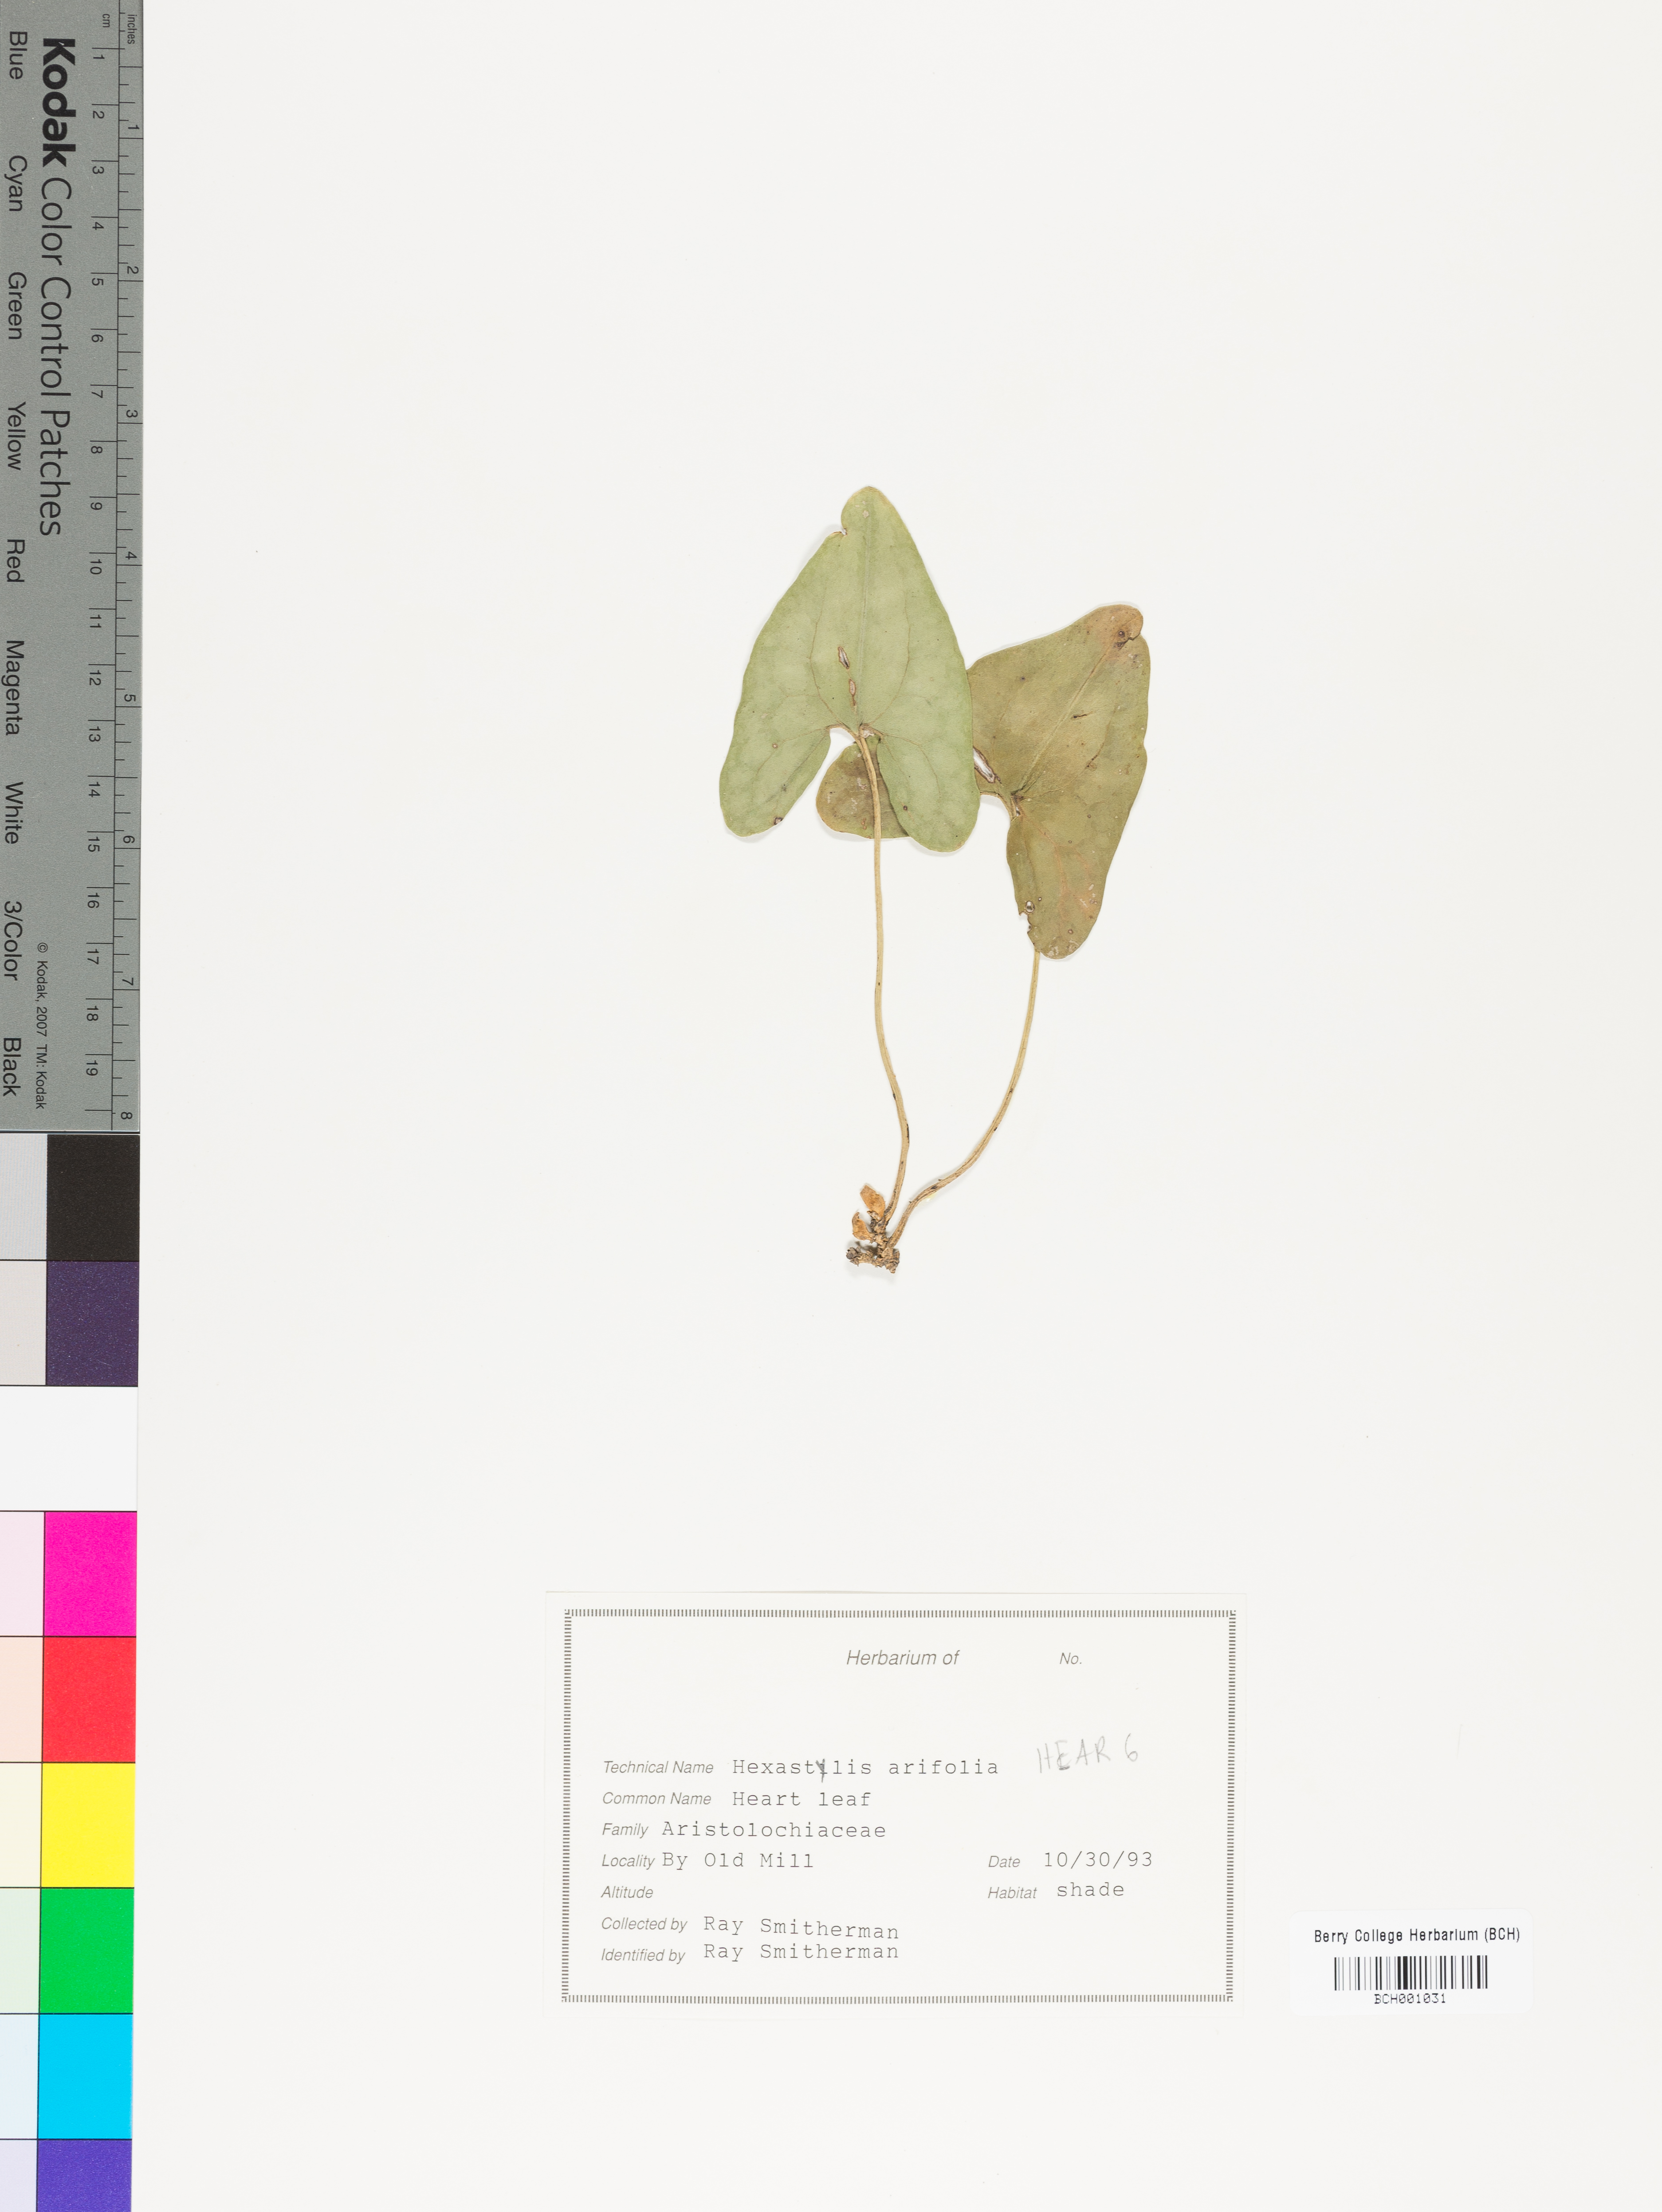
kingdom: Plantae
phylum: Tracheophyta
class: Magnoliopsida
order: Piperales
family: Aristolochiaceae
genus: Hexastylis
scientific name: Hexastylis arifolia
